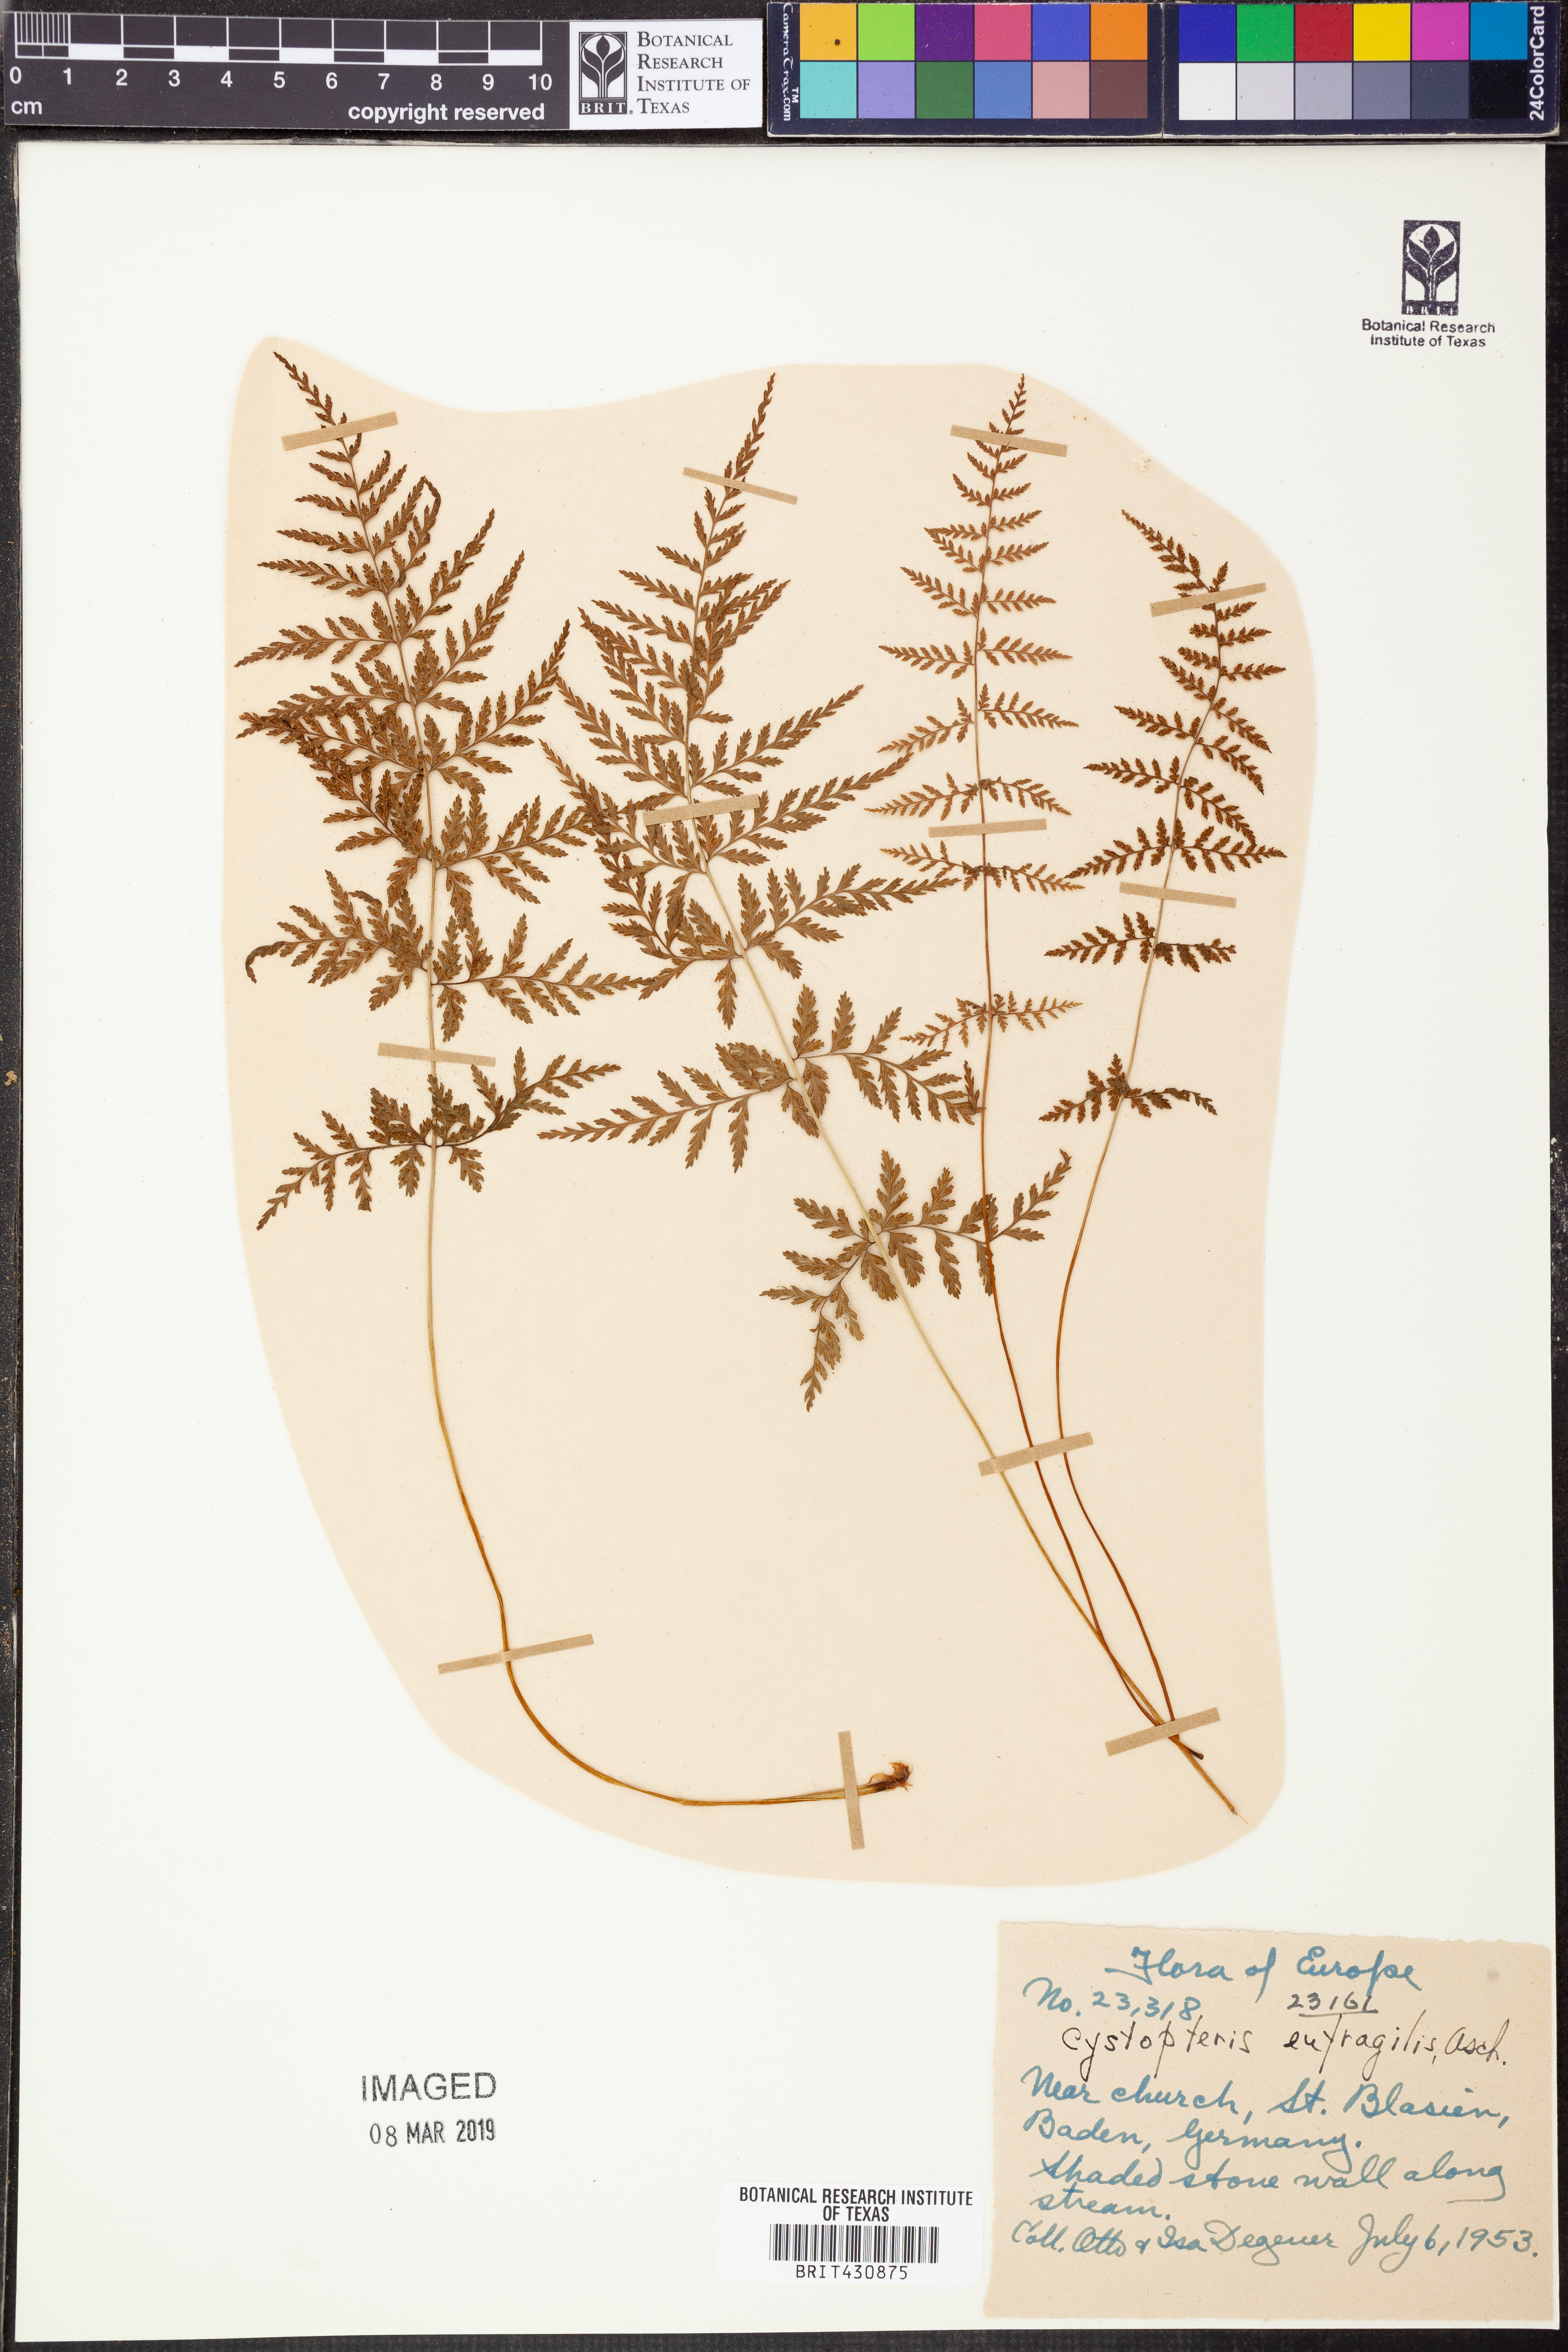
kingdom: Plantae
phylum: Tracheophyta
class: Polypodiopsida
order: Polypodiales
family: Cystopteridaceae
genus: Cystopteris
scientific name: Cystopteris
